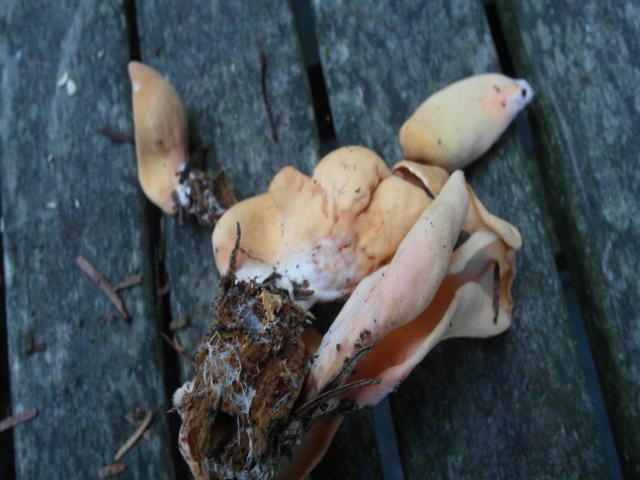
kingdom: Fungi
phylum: Ascomycota
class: Pezizomycetes
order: Pezizales
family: Otideaceae
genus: Otidea
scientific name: Otidea onotica
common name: æsel-ørebæger
